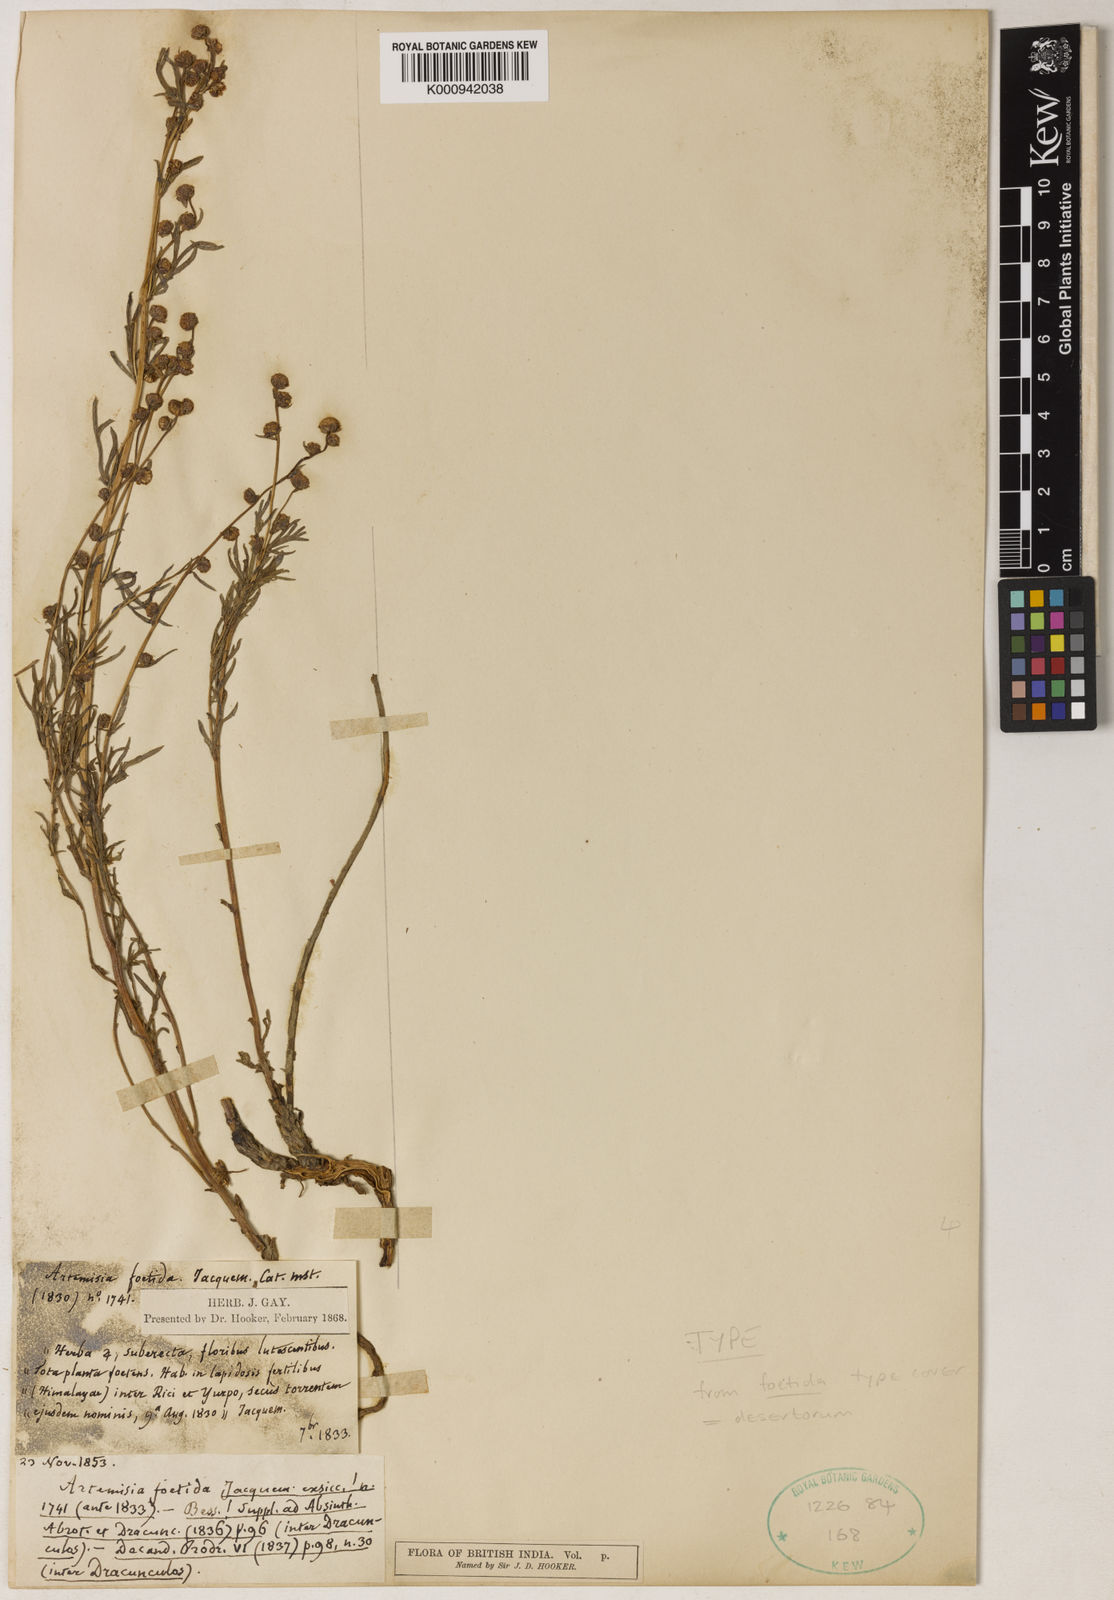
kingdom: Plantae
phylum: Tracheophyta
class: Magnoliopsida
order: Asterales
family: Asteraceae
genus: Artemisia
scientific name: Artemisia desertorum
